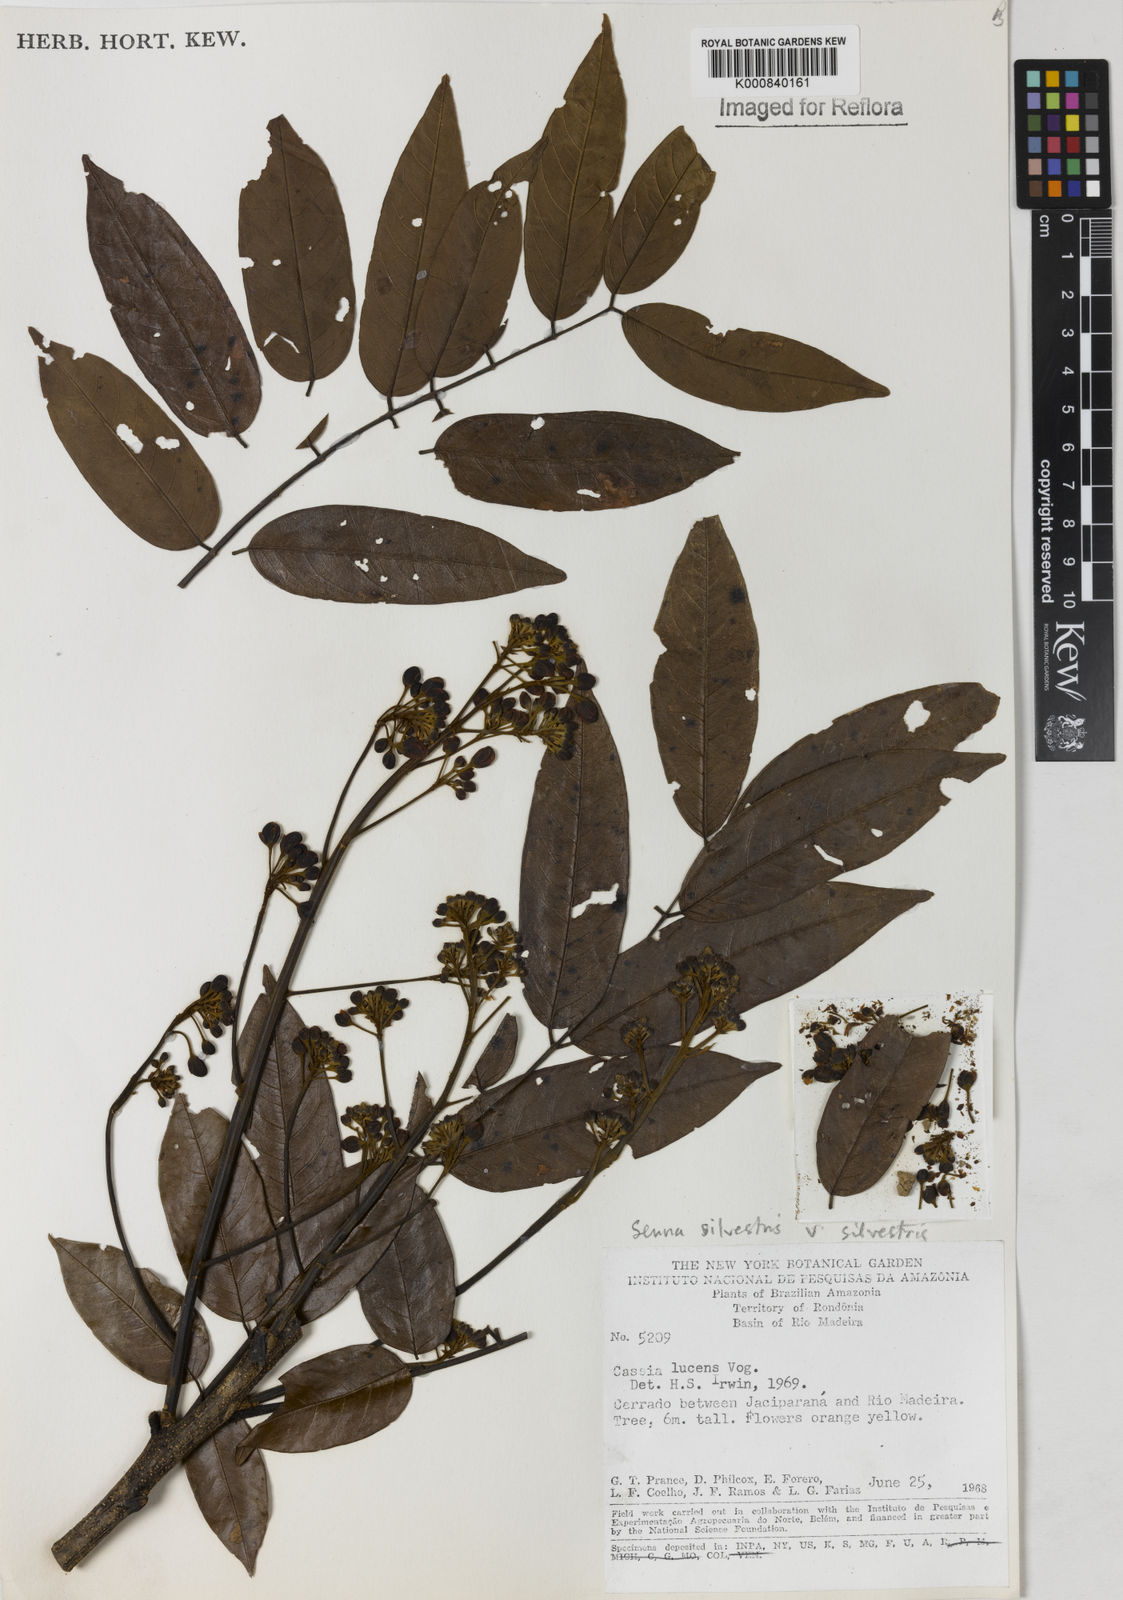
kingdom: Plantae
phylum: Tracheophyta
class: Magnoliopsida
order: Fabales
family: Fabaceae
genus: Senna
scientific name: Senna silvestris
